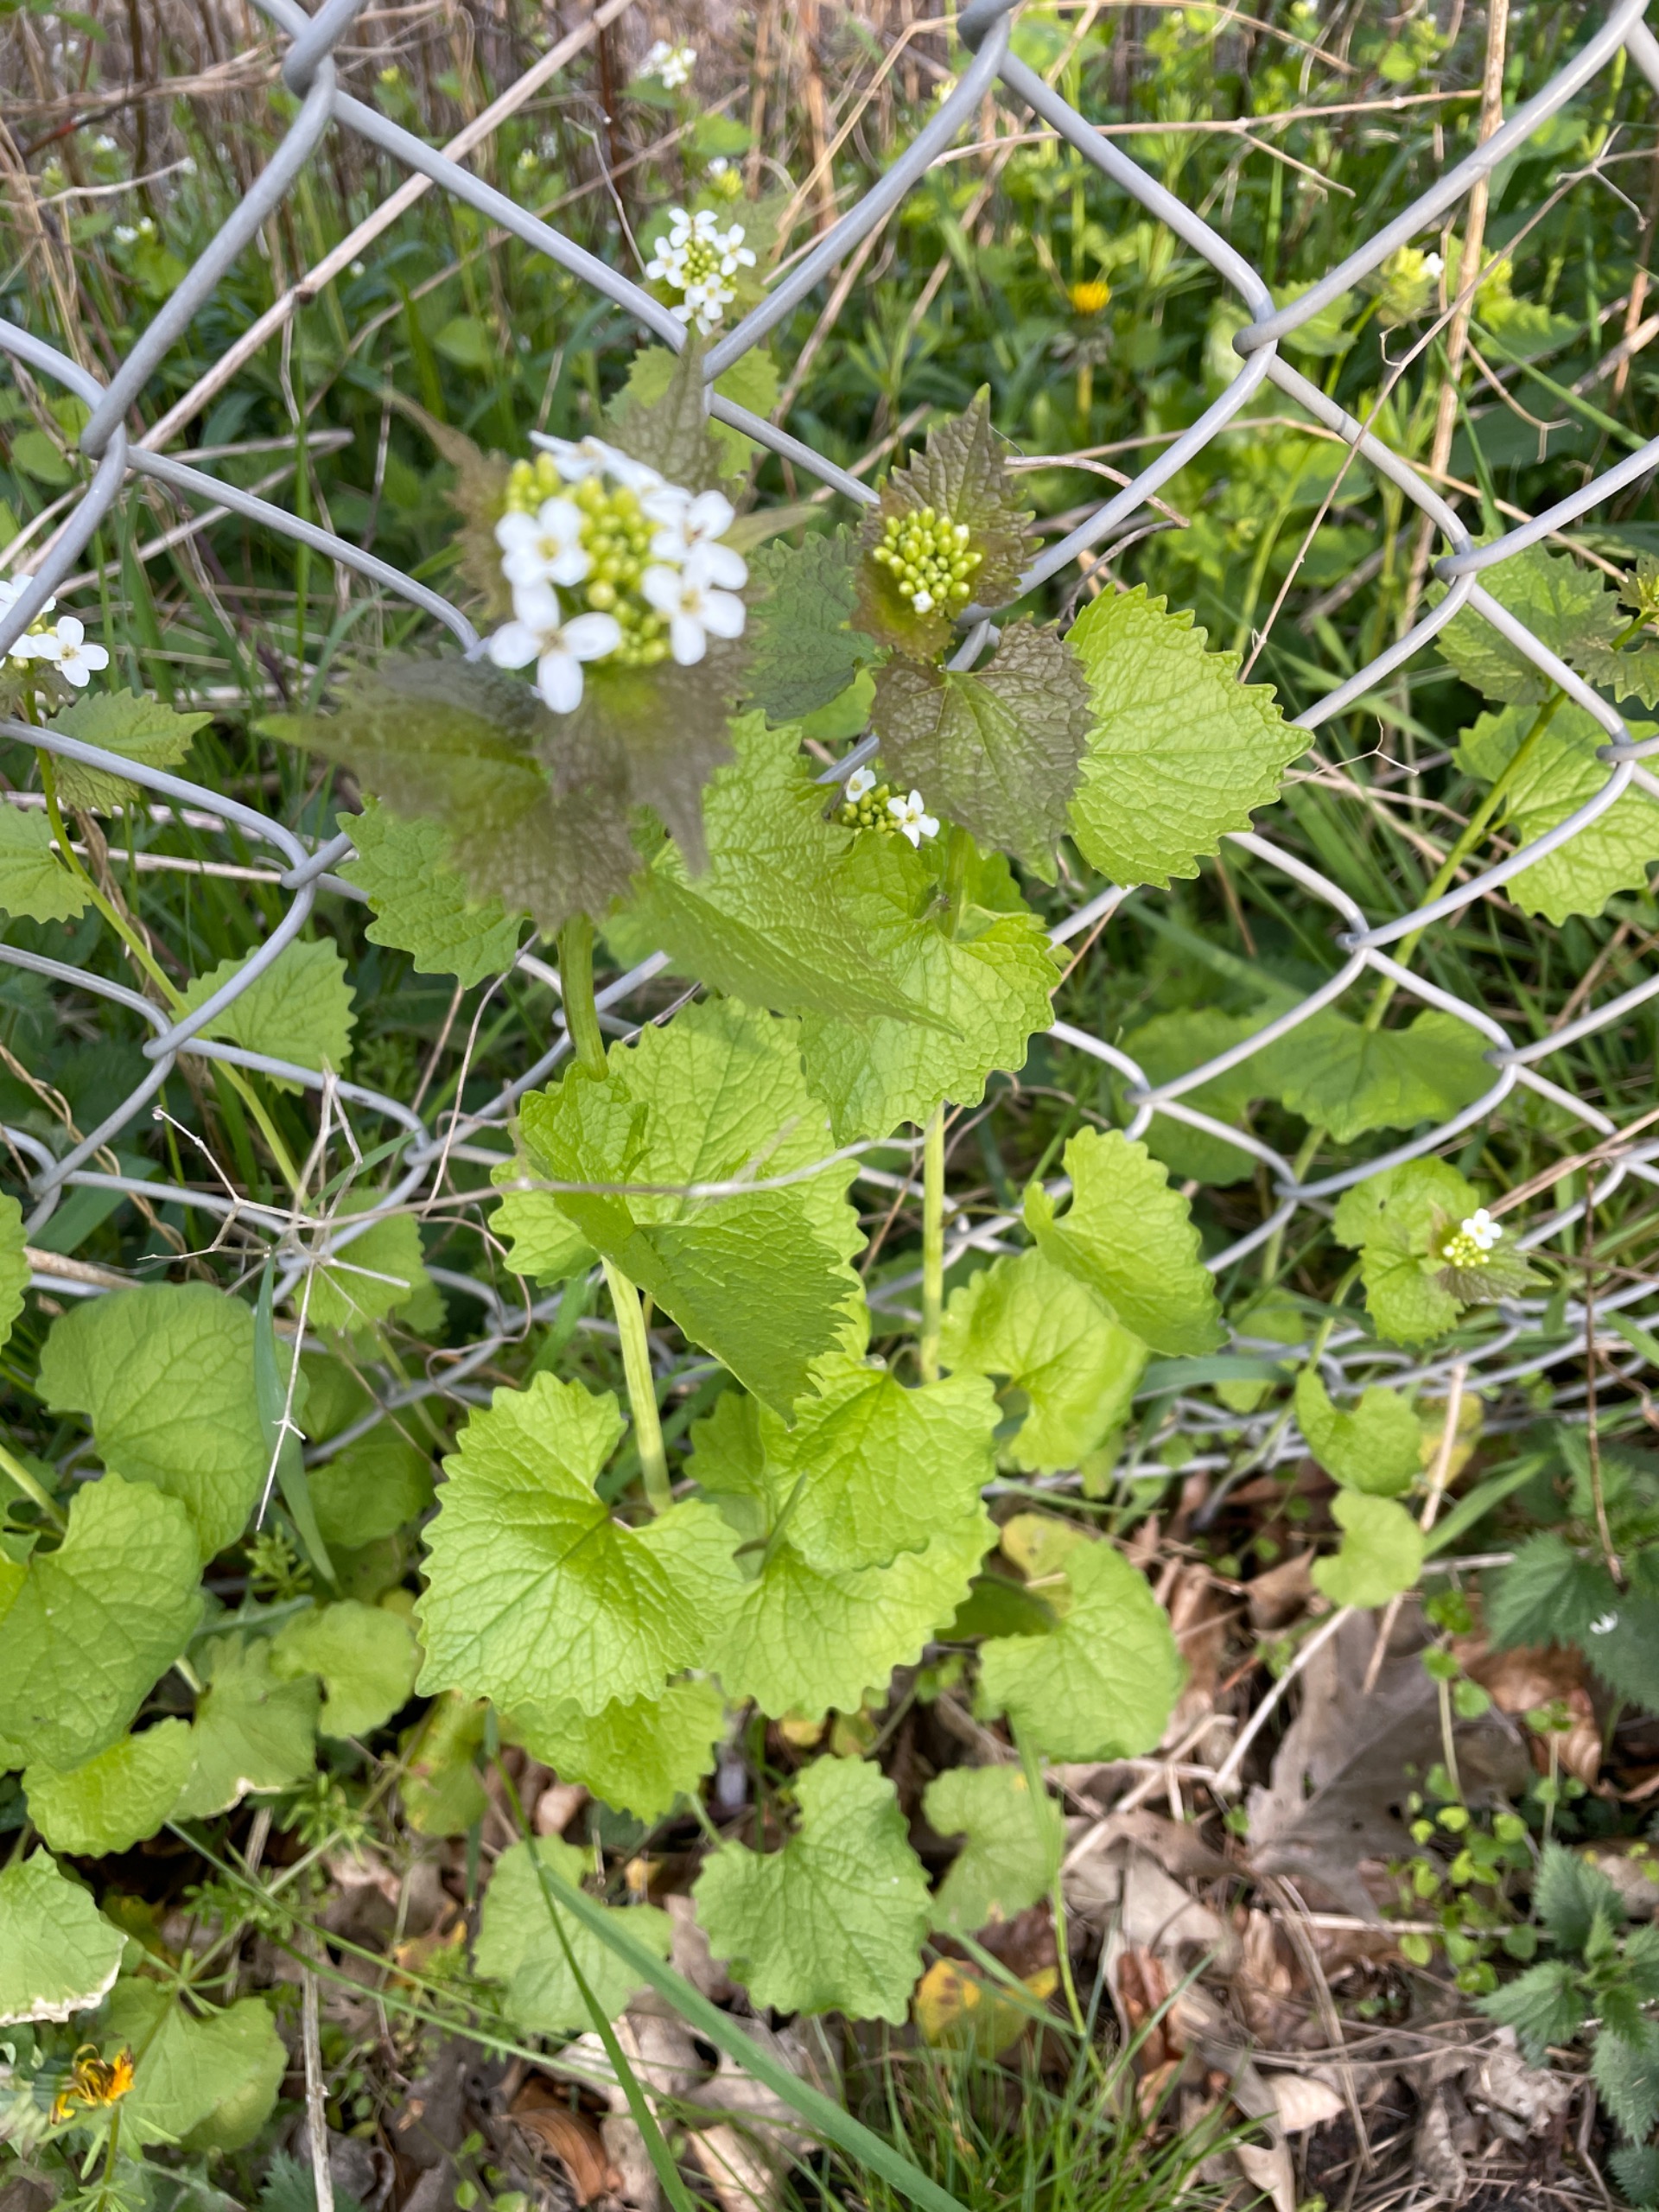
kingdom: Plantae
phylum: Tracheophyta
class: Magnoliopsida
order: Brassicales
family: Brassicaceae
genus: Alliaria
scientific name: Alliaria petiolata
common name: Løgkarse
